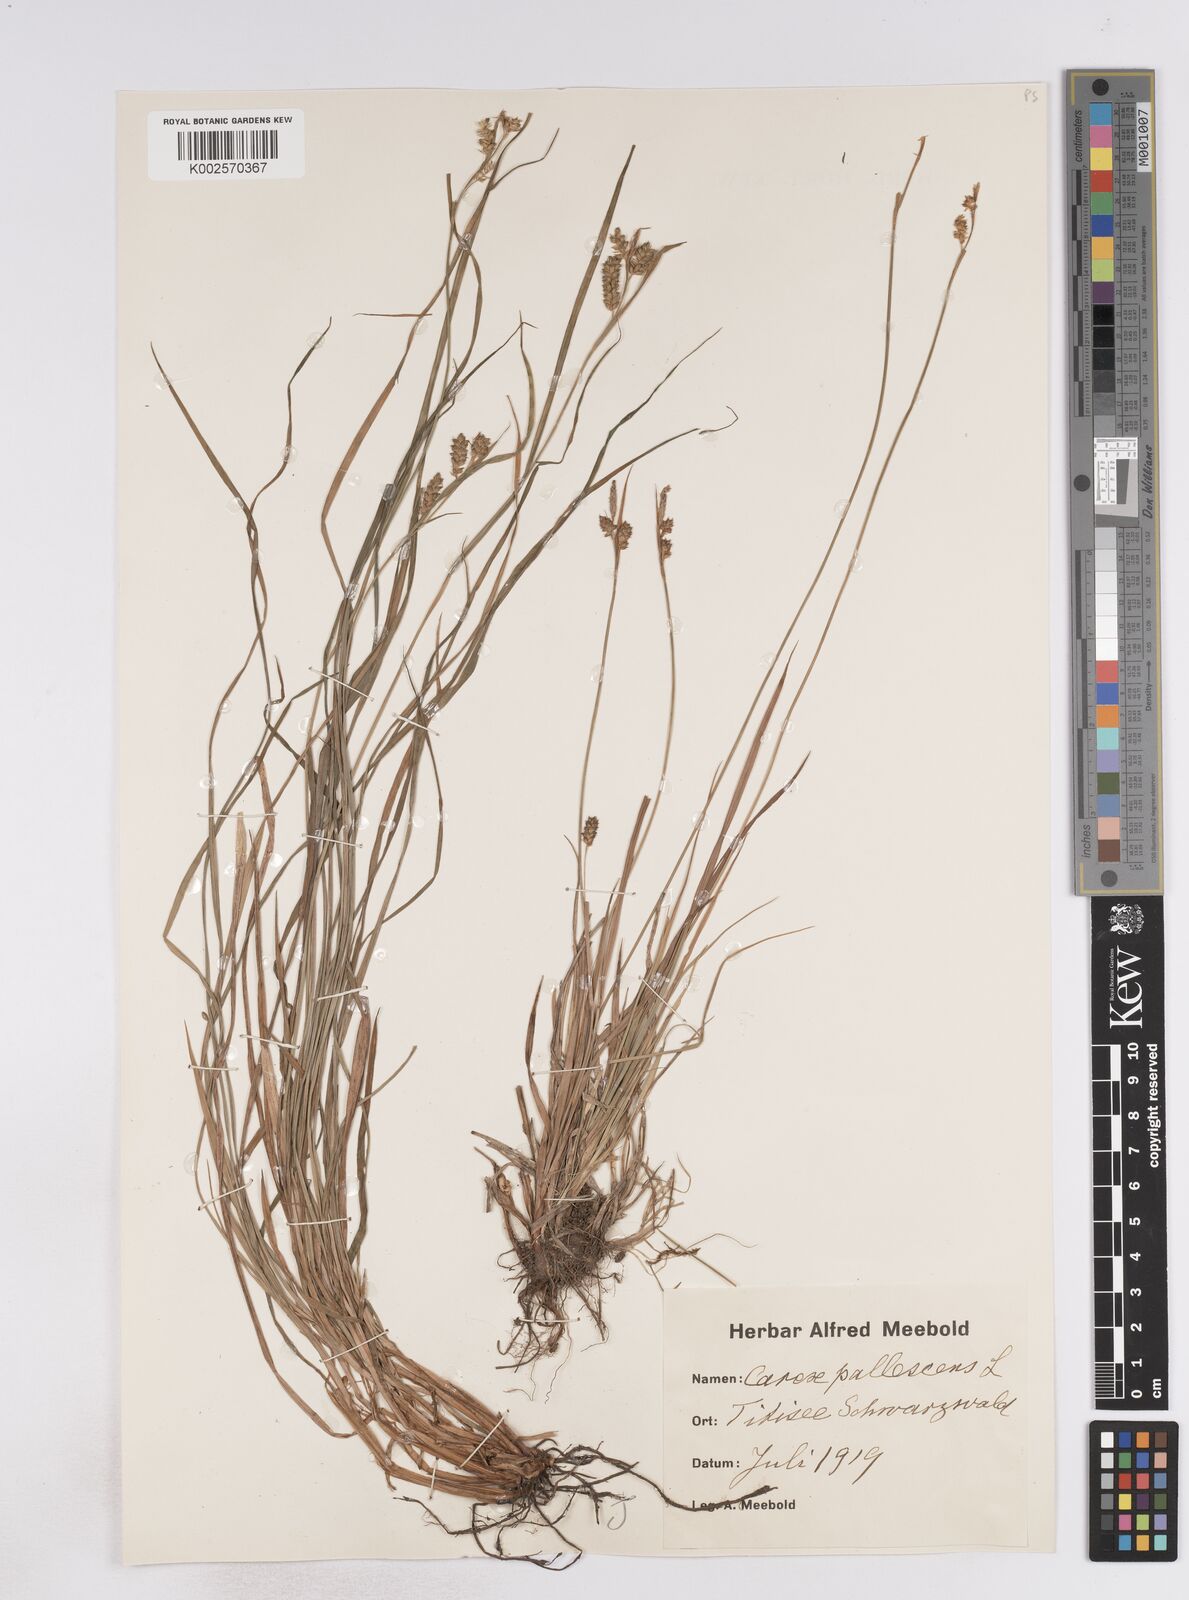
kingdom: Plantae
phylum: Tracheophyta
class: Liliopsida
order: Poales
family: Cyperaceae
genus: Carex
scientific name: Carex pallescens
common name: Pale sedge
